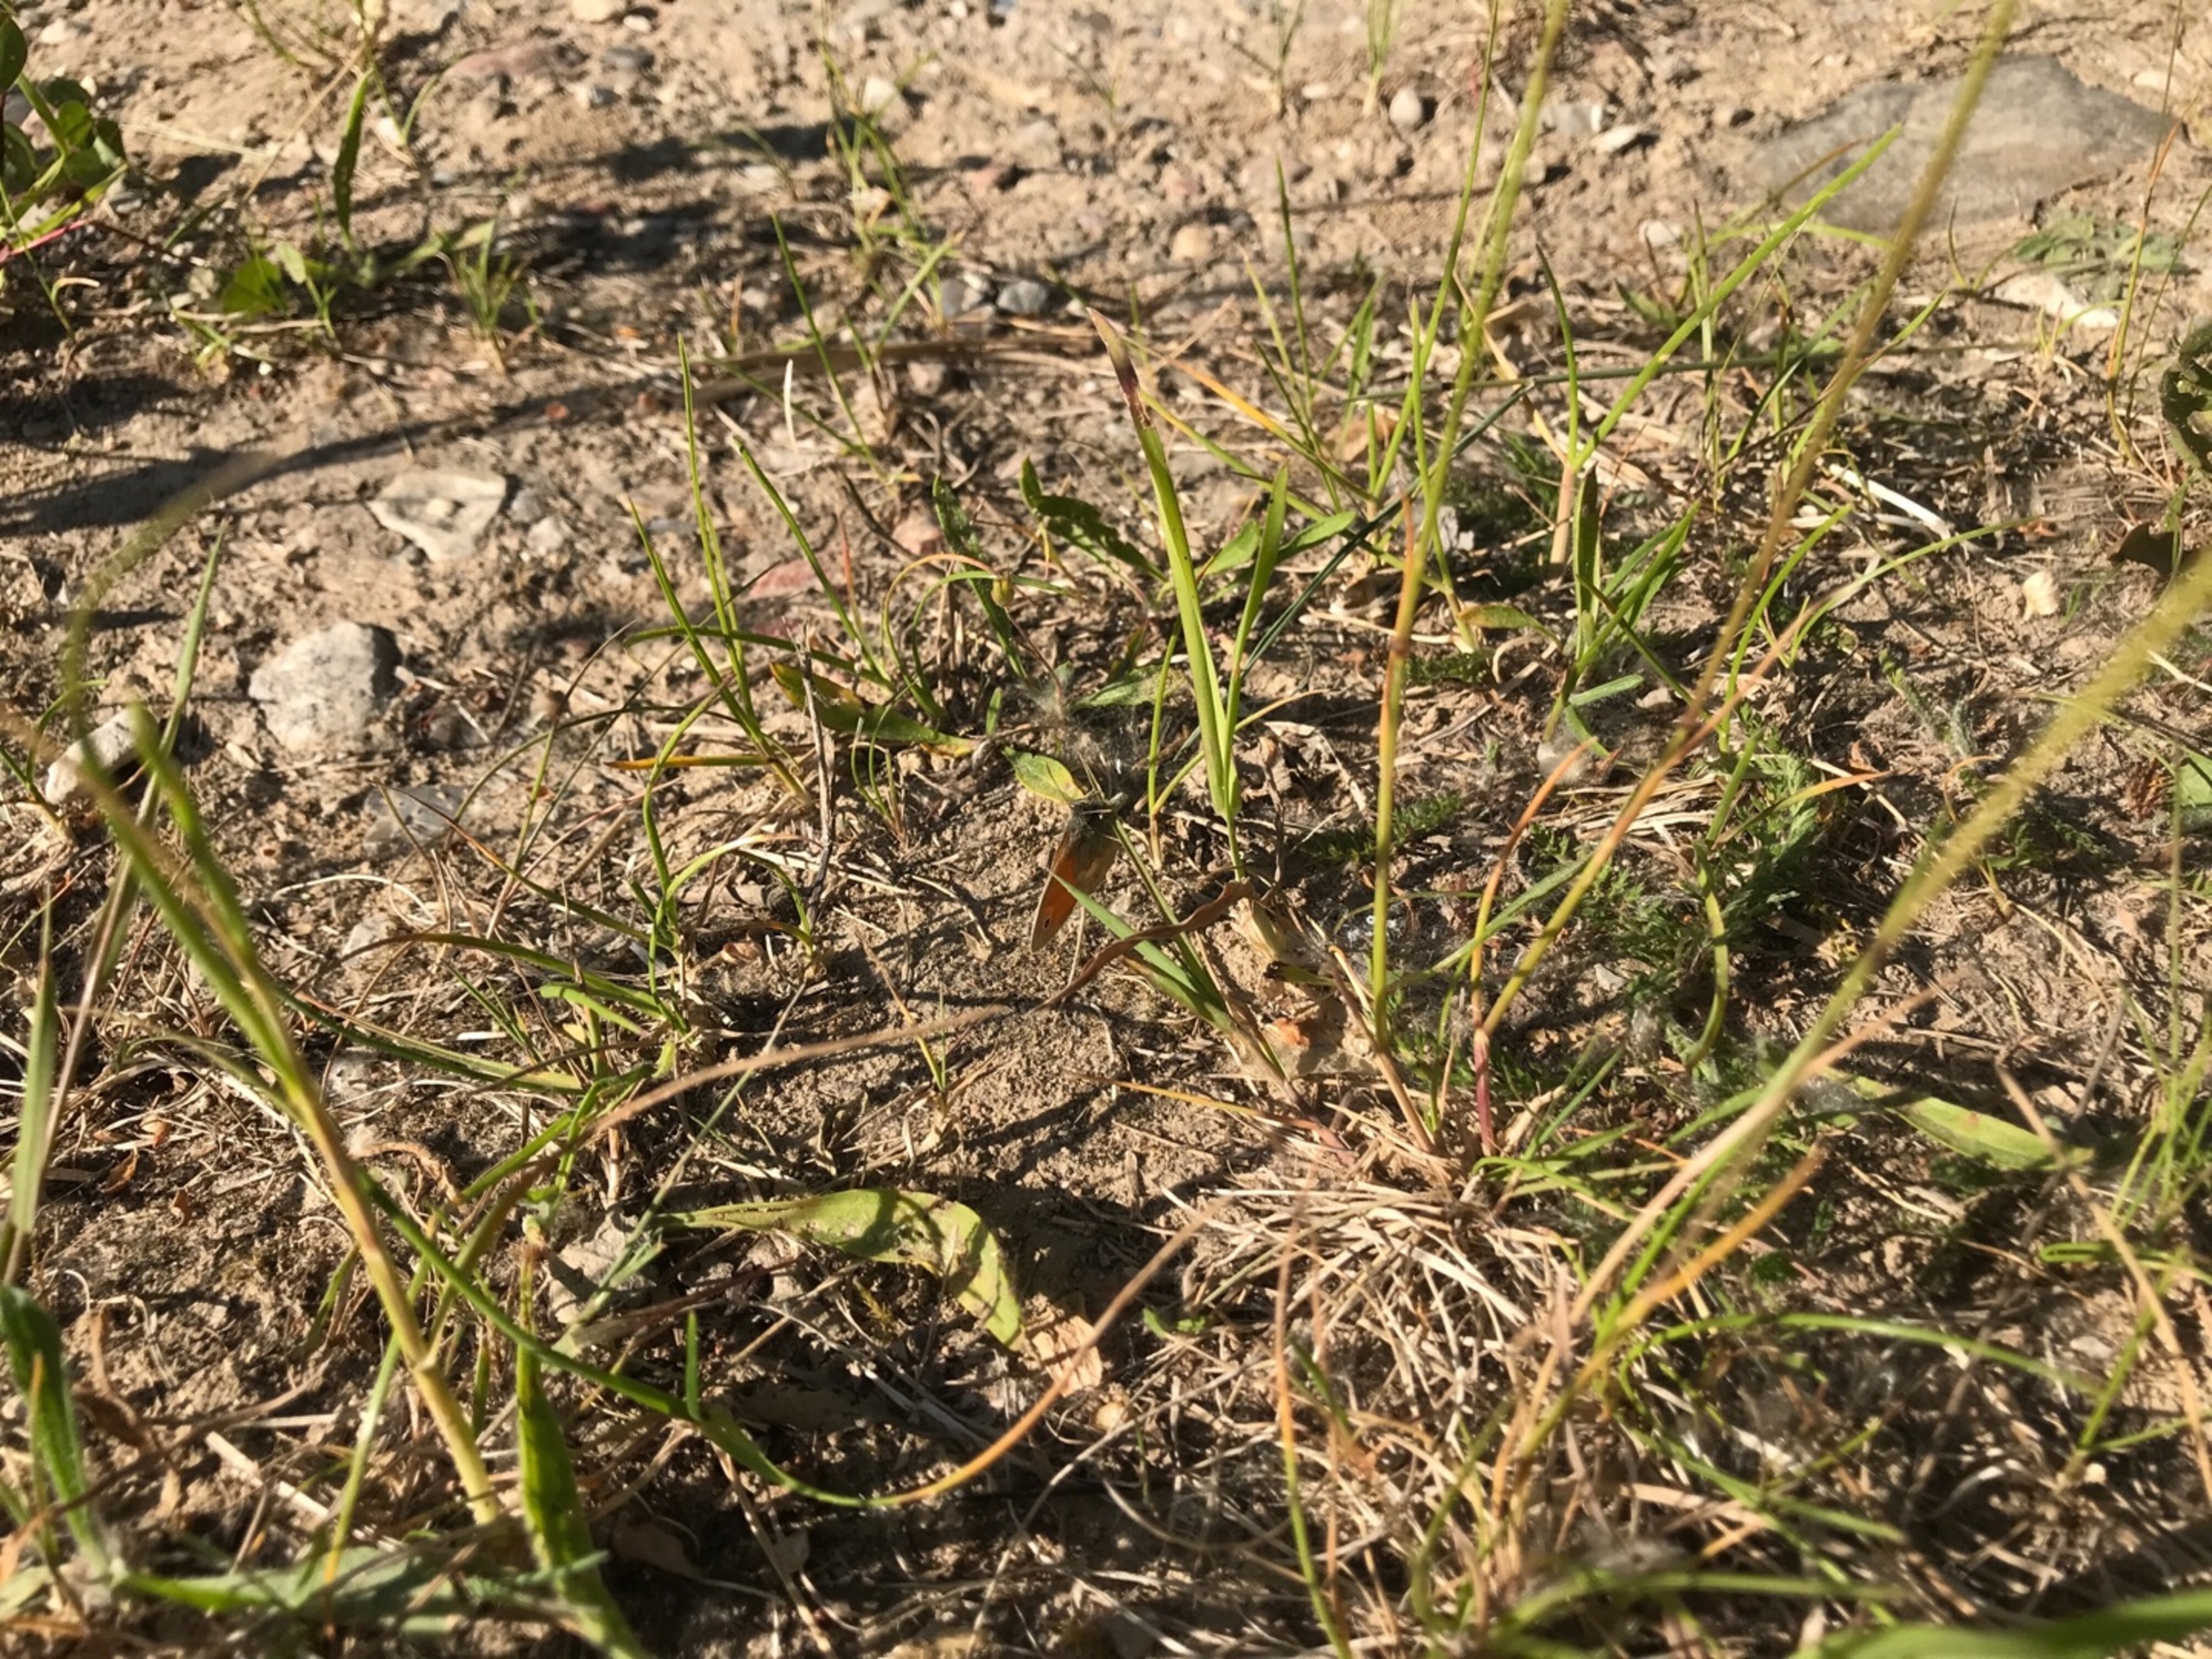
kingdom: Animalia
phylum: Arthropoda
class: Insecta
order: Lepidoptera
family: Nymphalidae
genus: Coenonympha
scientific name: Coenonympha pamphilus
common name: Okkergul randøje
